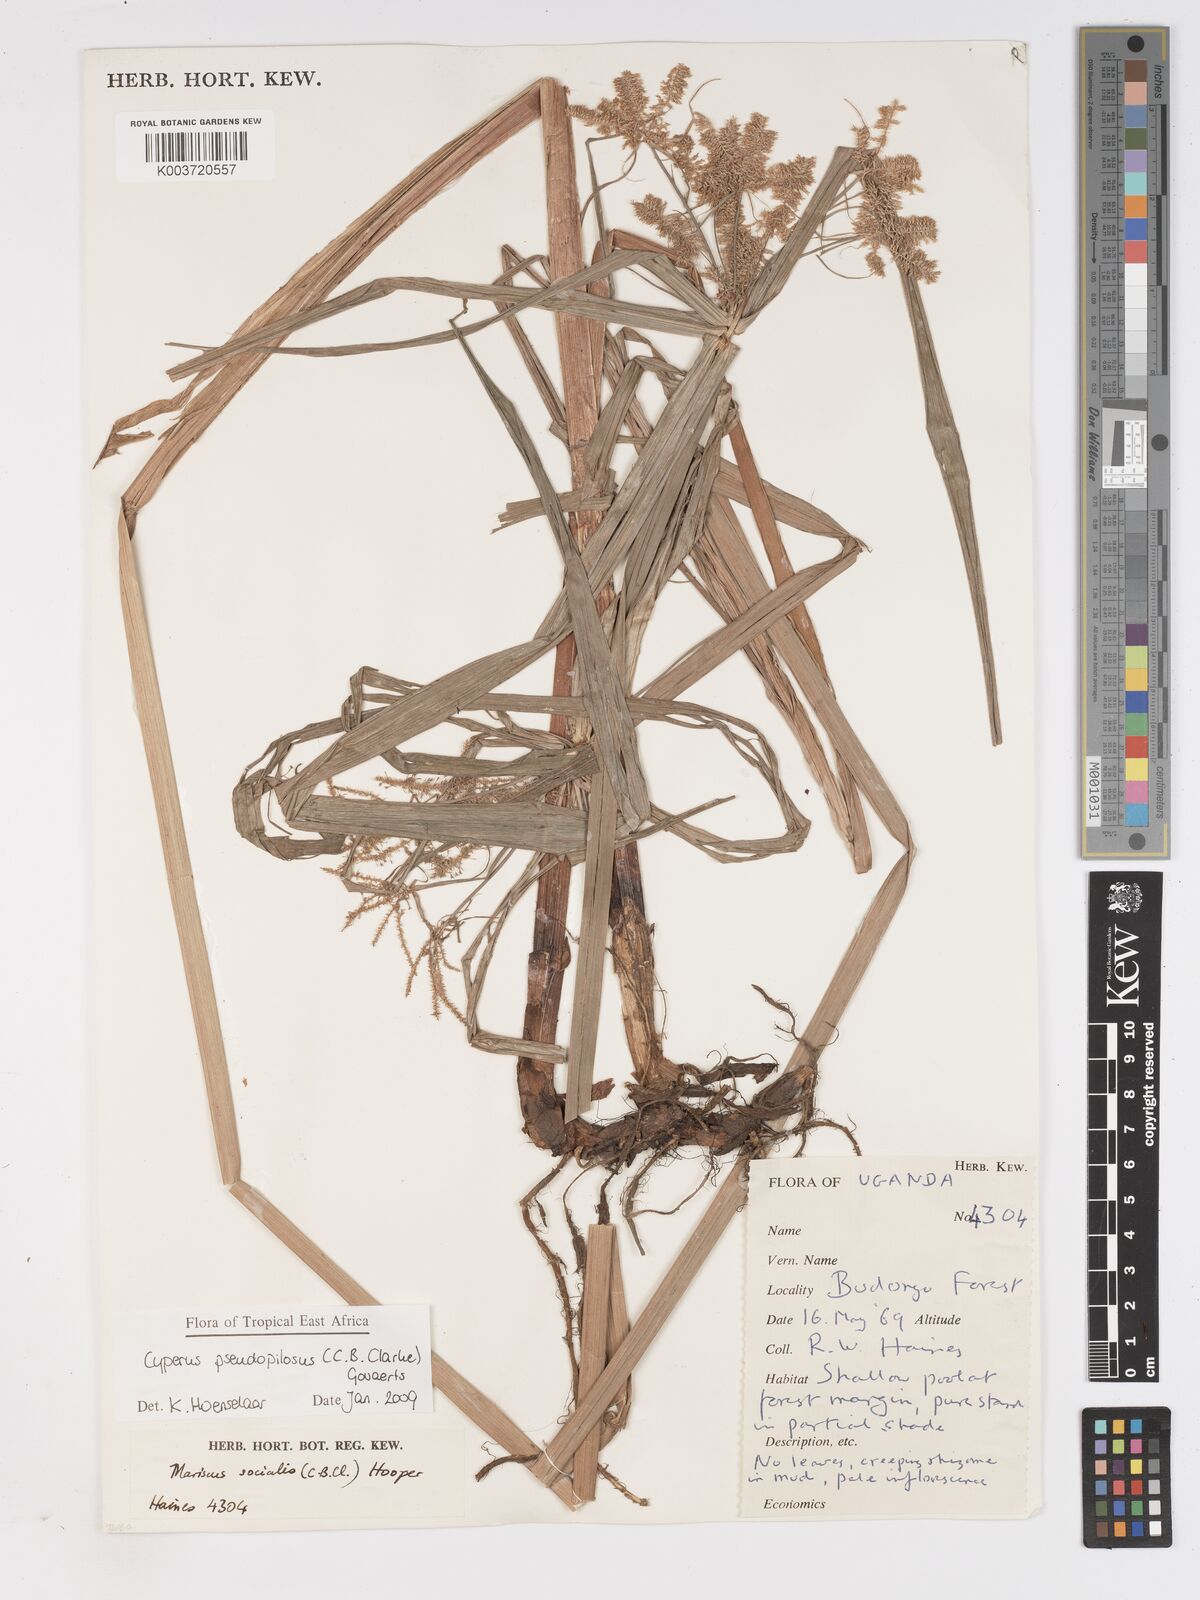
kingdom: Plantae
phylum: Tracheophyta
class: Liliopsida
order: Poales
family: Cyperaceae
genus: Cyperus
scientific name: Cyperus pseudopilosus
